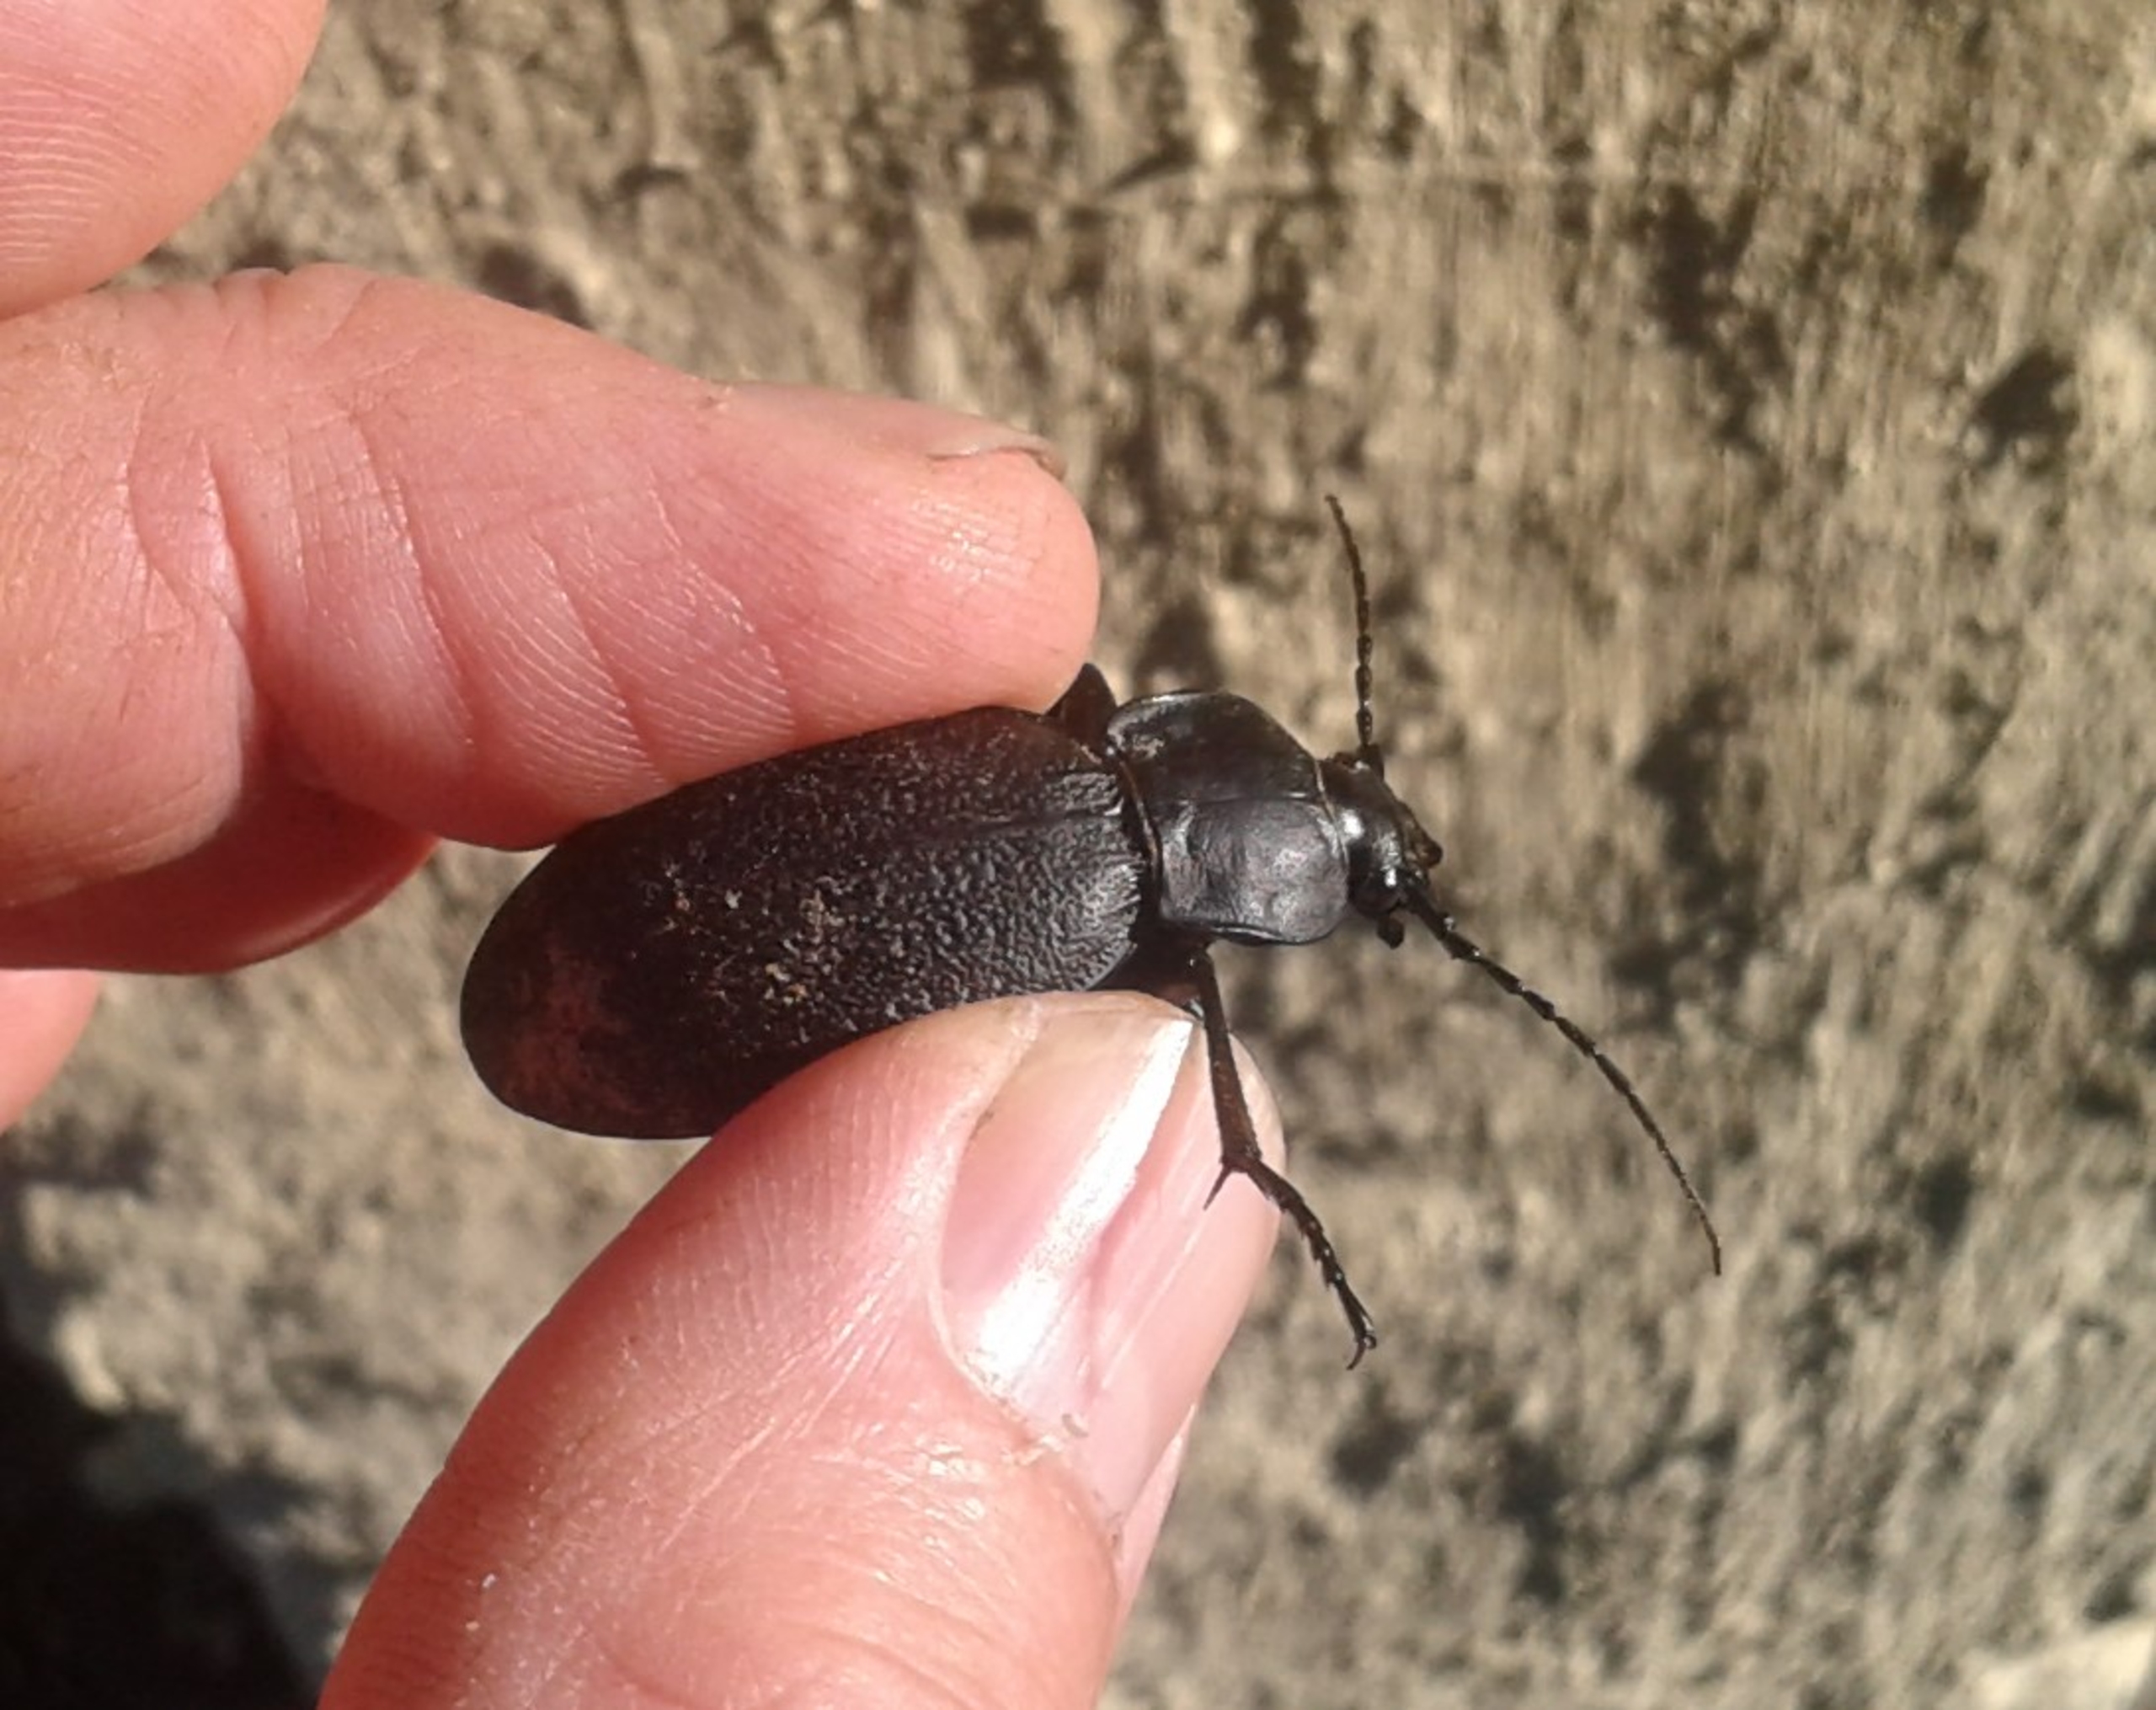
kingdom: Animalia
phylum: Arthropoda
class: Insecta
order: Coleoptera
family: Carabidae
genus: Carabus
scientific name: Carabus coriaceus
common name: Læderløber
